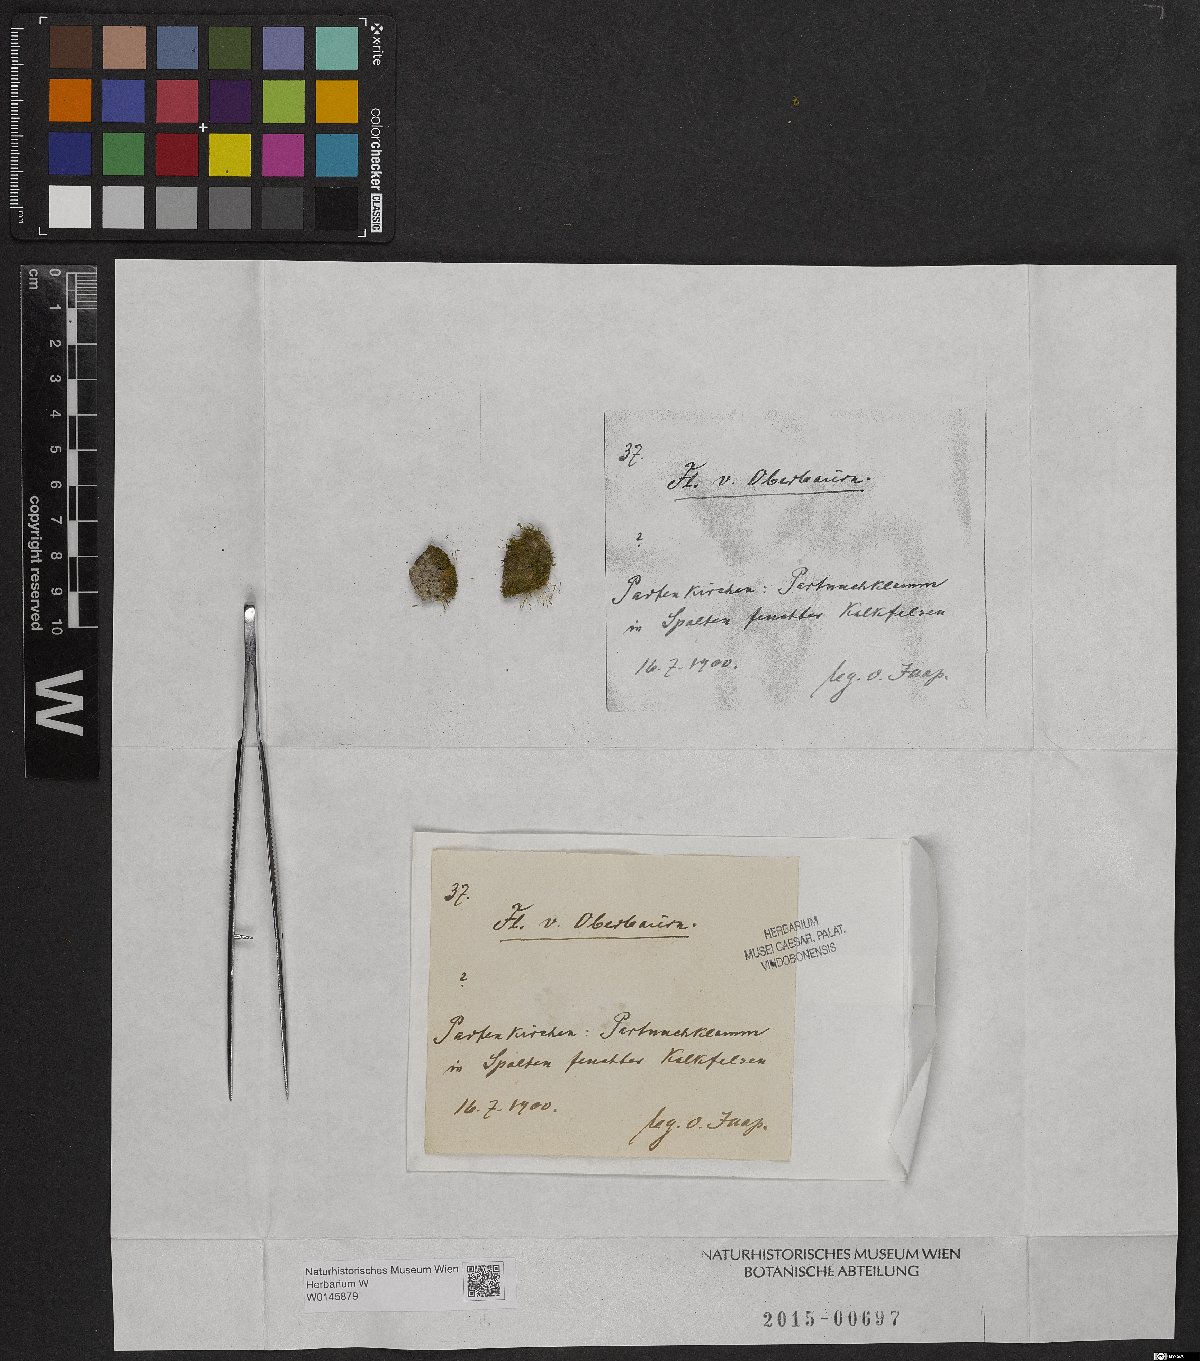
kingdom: Plantae
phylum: Bryophyta
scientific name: Bryophyta
